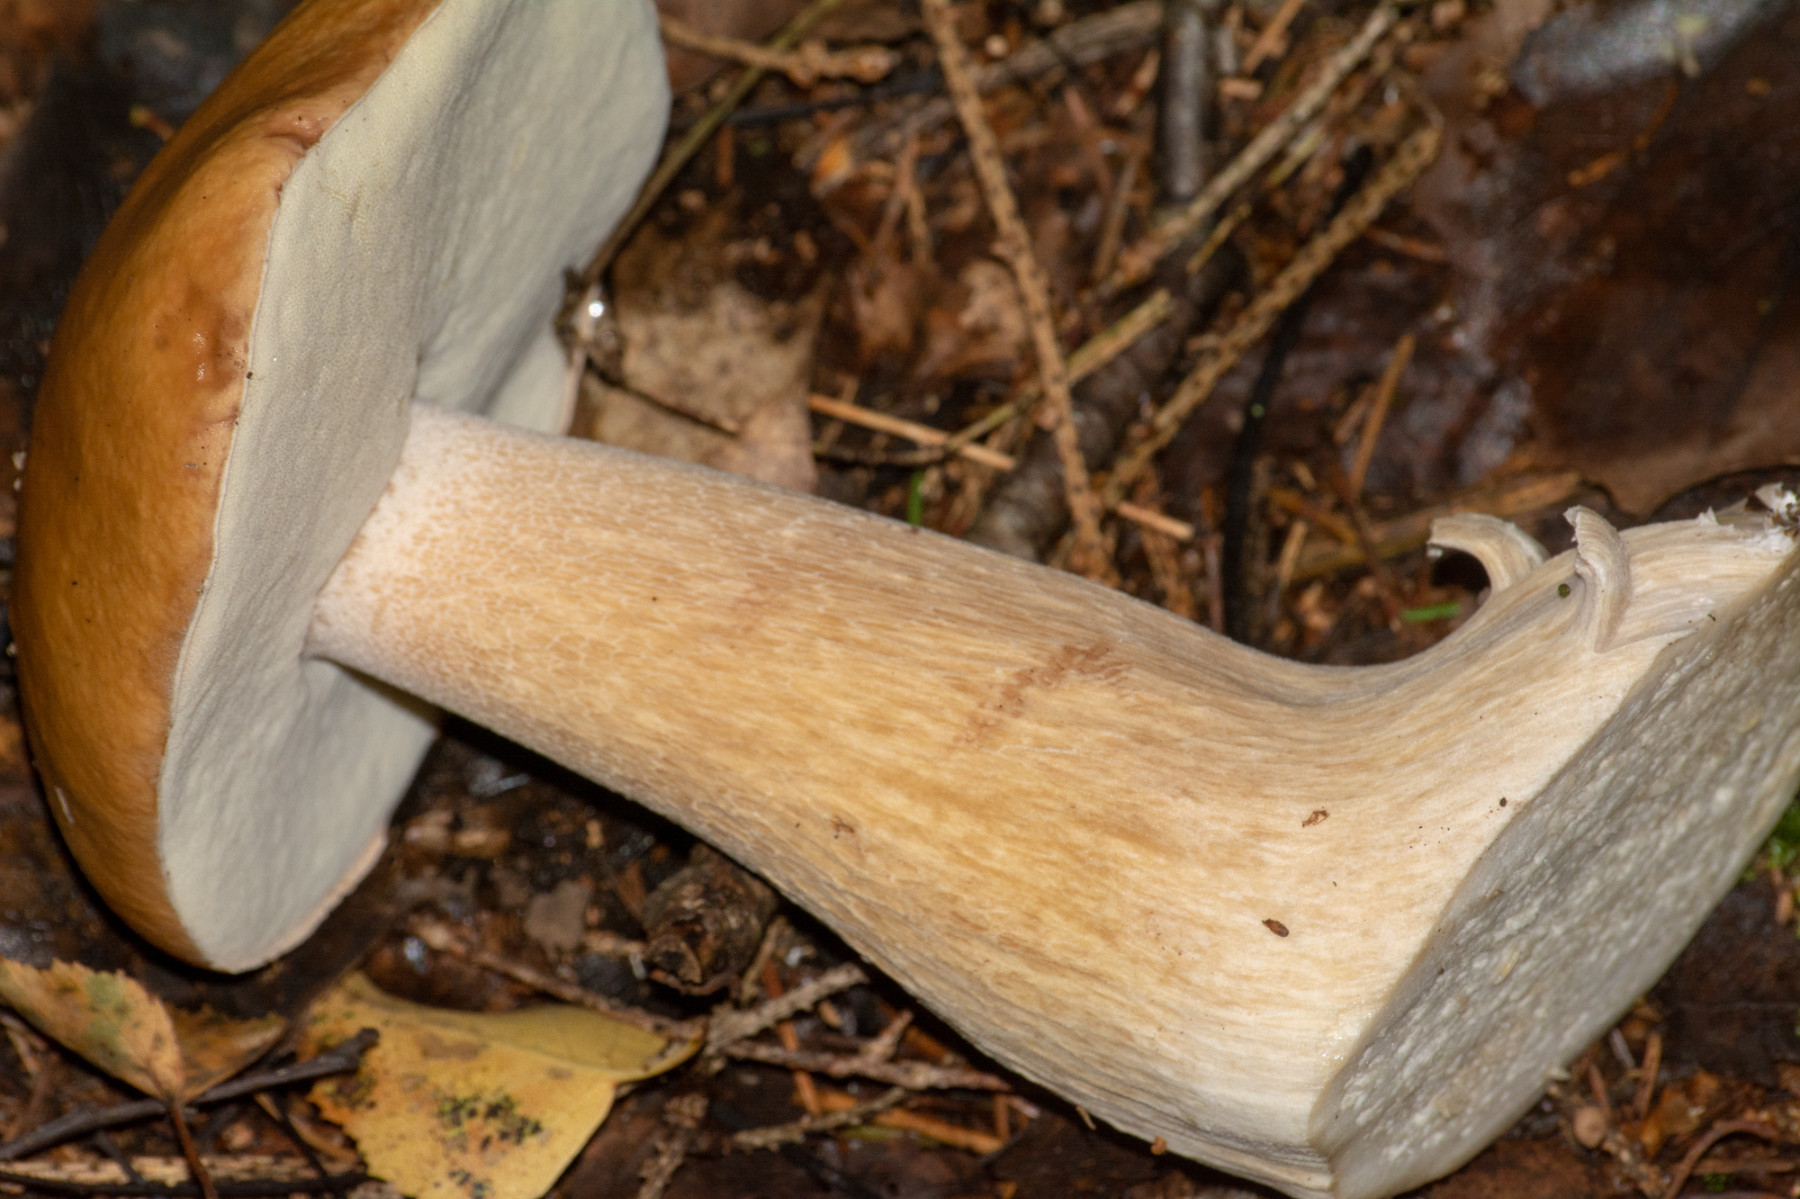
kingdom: Fungi
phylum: Basidiomycota
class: Agaricomycetes
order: Boletales
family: Boletaceae
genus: Boletus
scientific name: Boletus edulis
